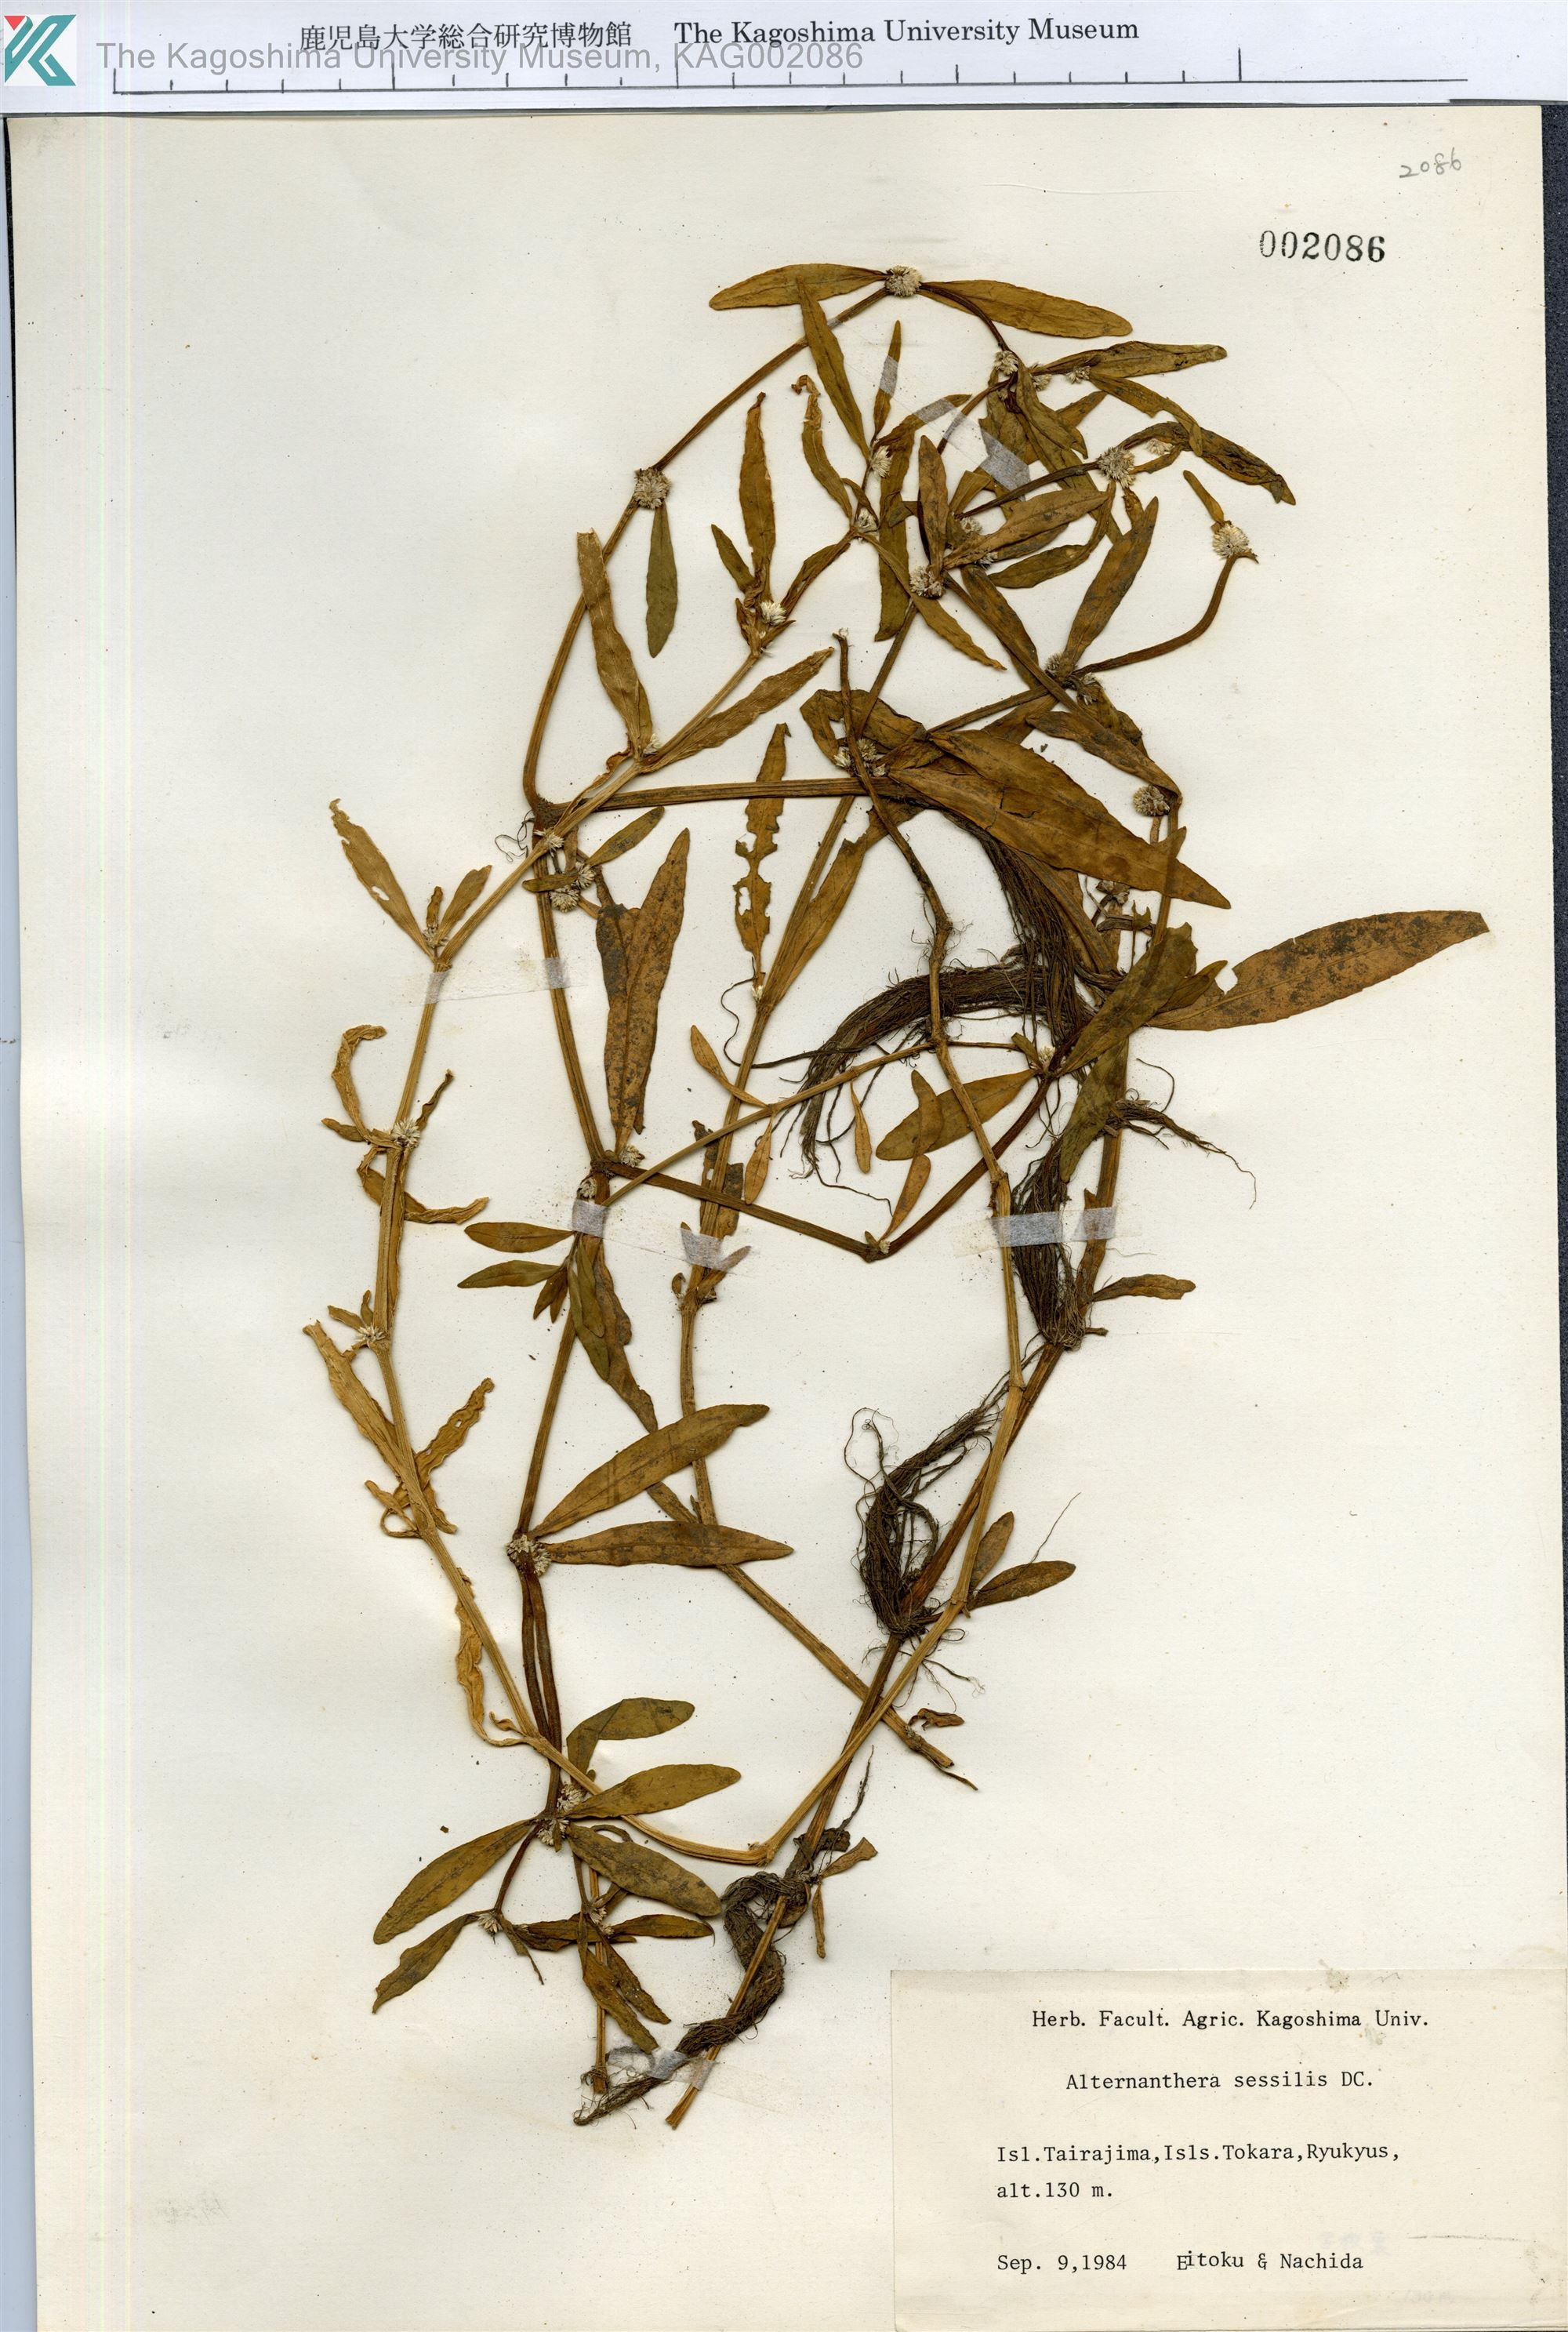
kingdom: Plantae
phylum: Tracheophyta
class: Magnoliopsida
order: Caryophyllales
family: Amaranthaceae
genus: Alternanthera
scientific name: Alternanthera sessilis
